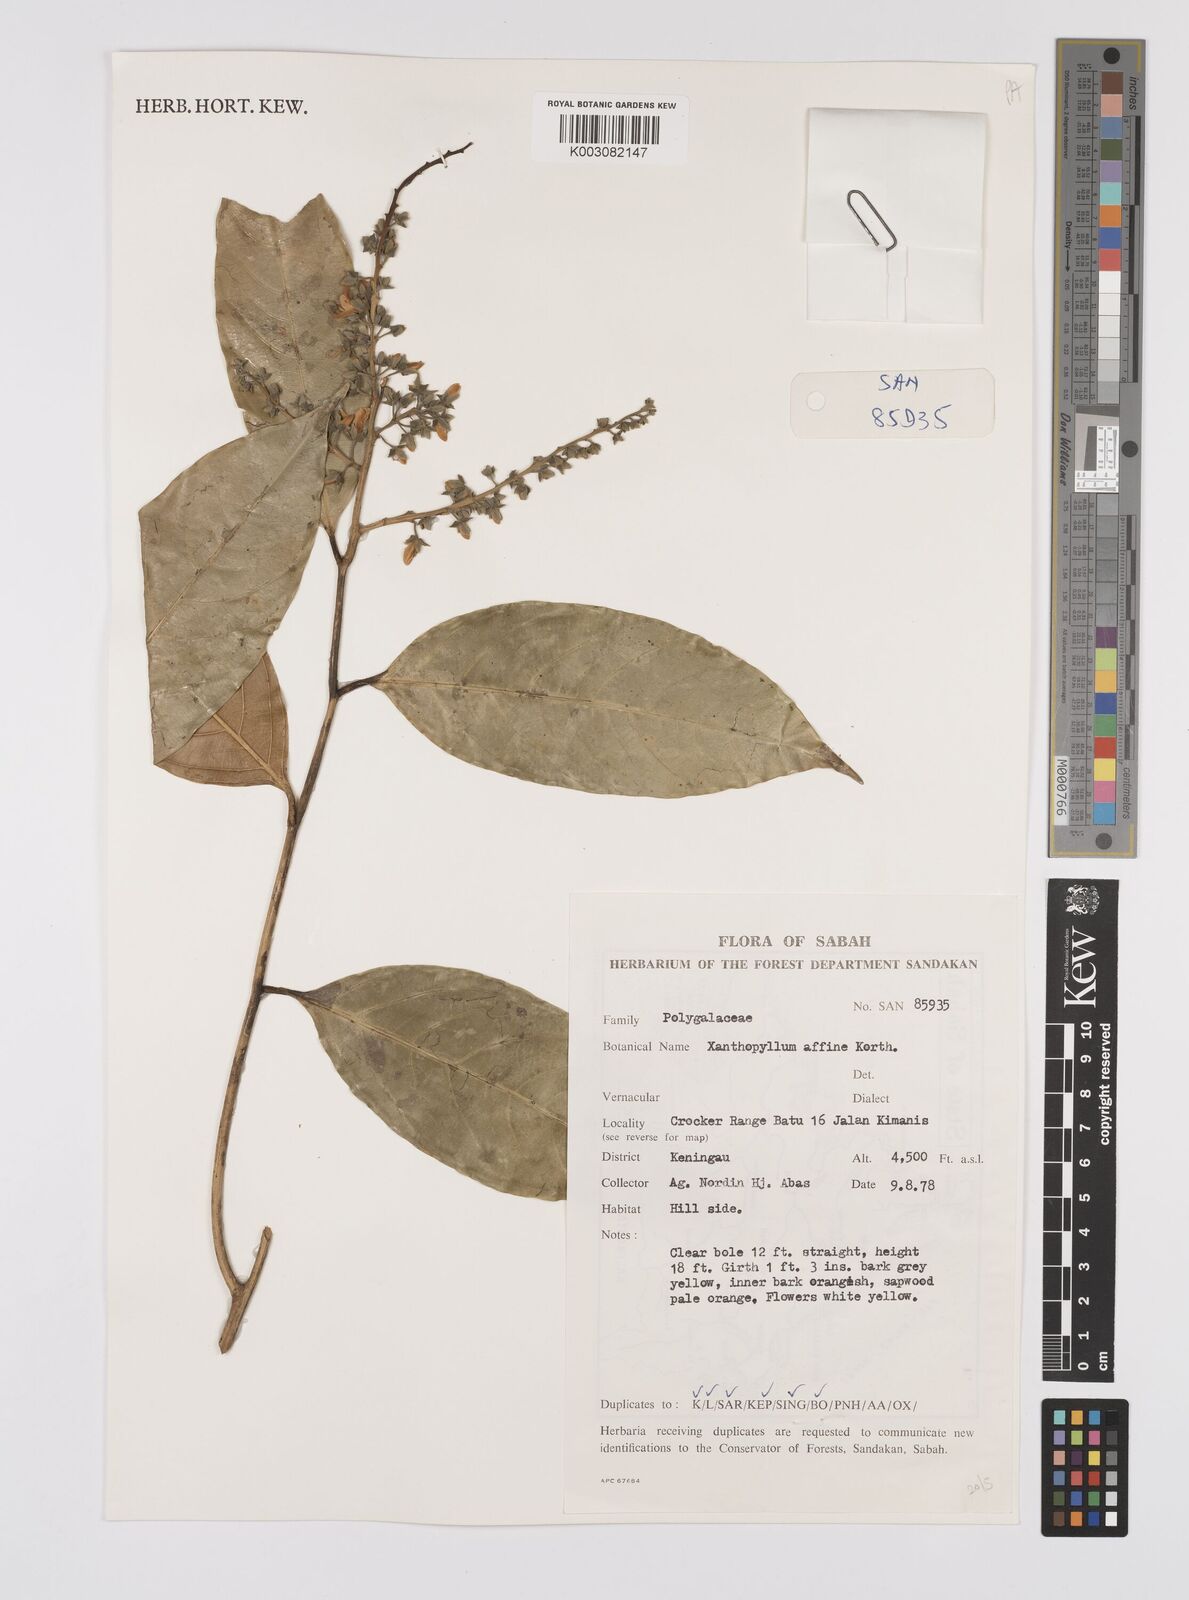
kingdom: Plantae
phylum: Tracheophyta
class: Magnoliopsida
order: Fabales
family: Polygalaceae
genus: Xanthophyllum
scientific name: Xanthophyllum flavescens
